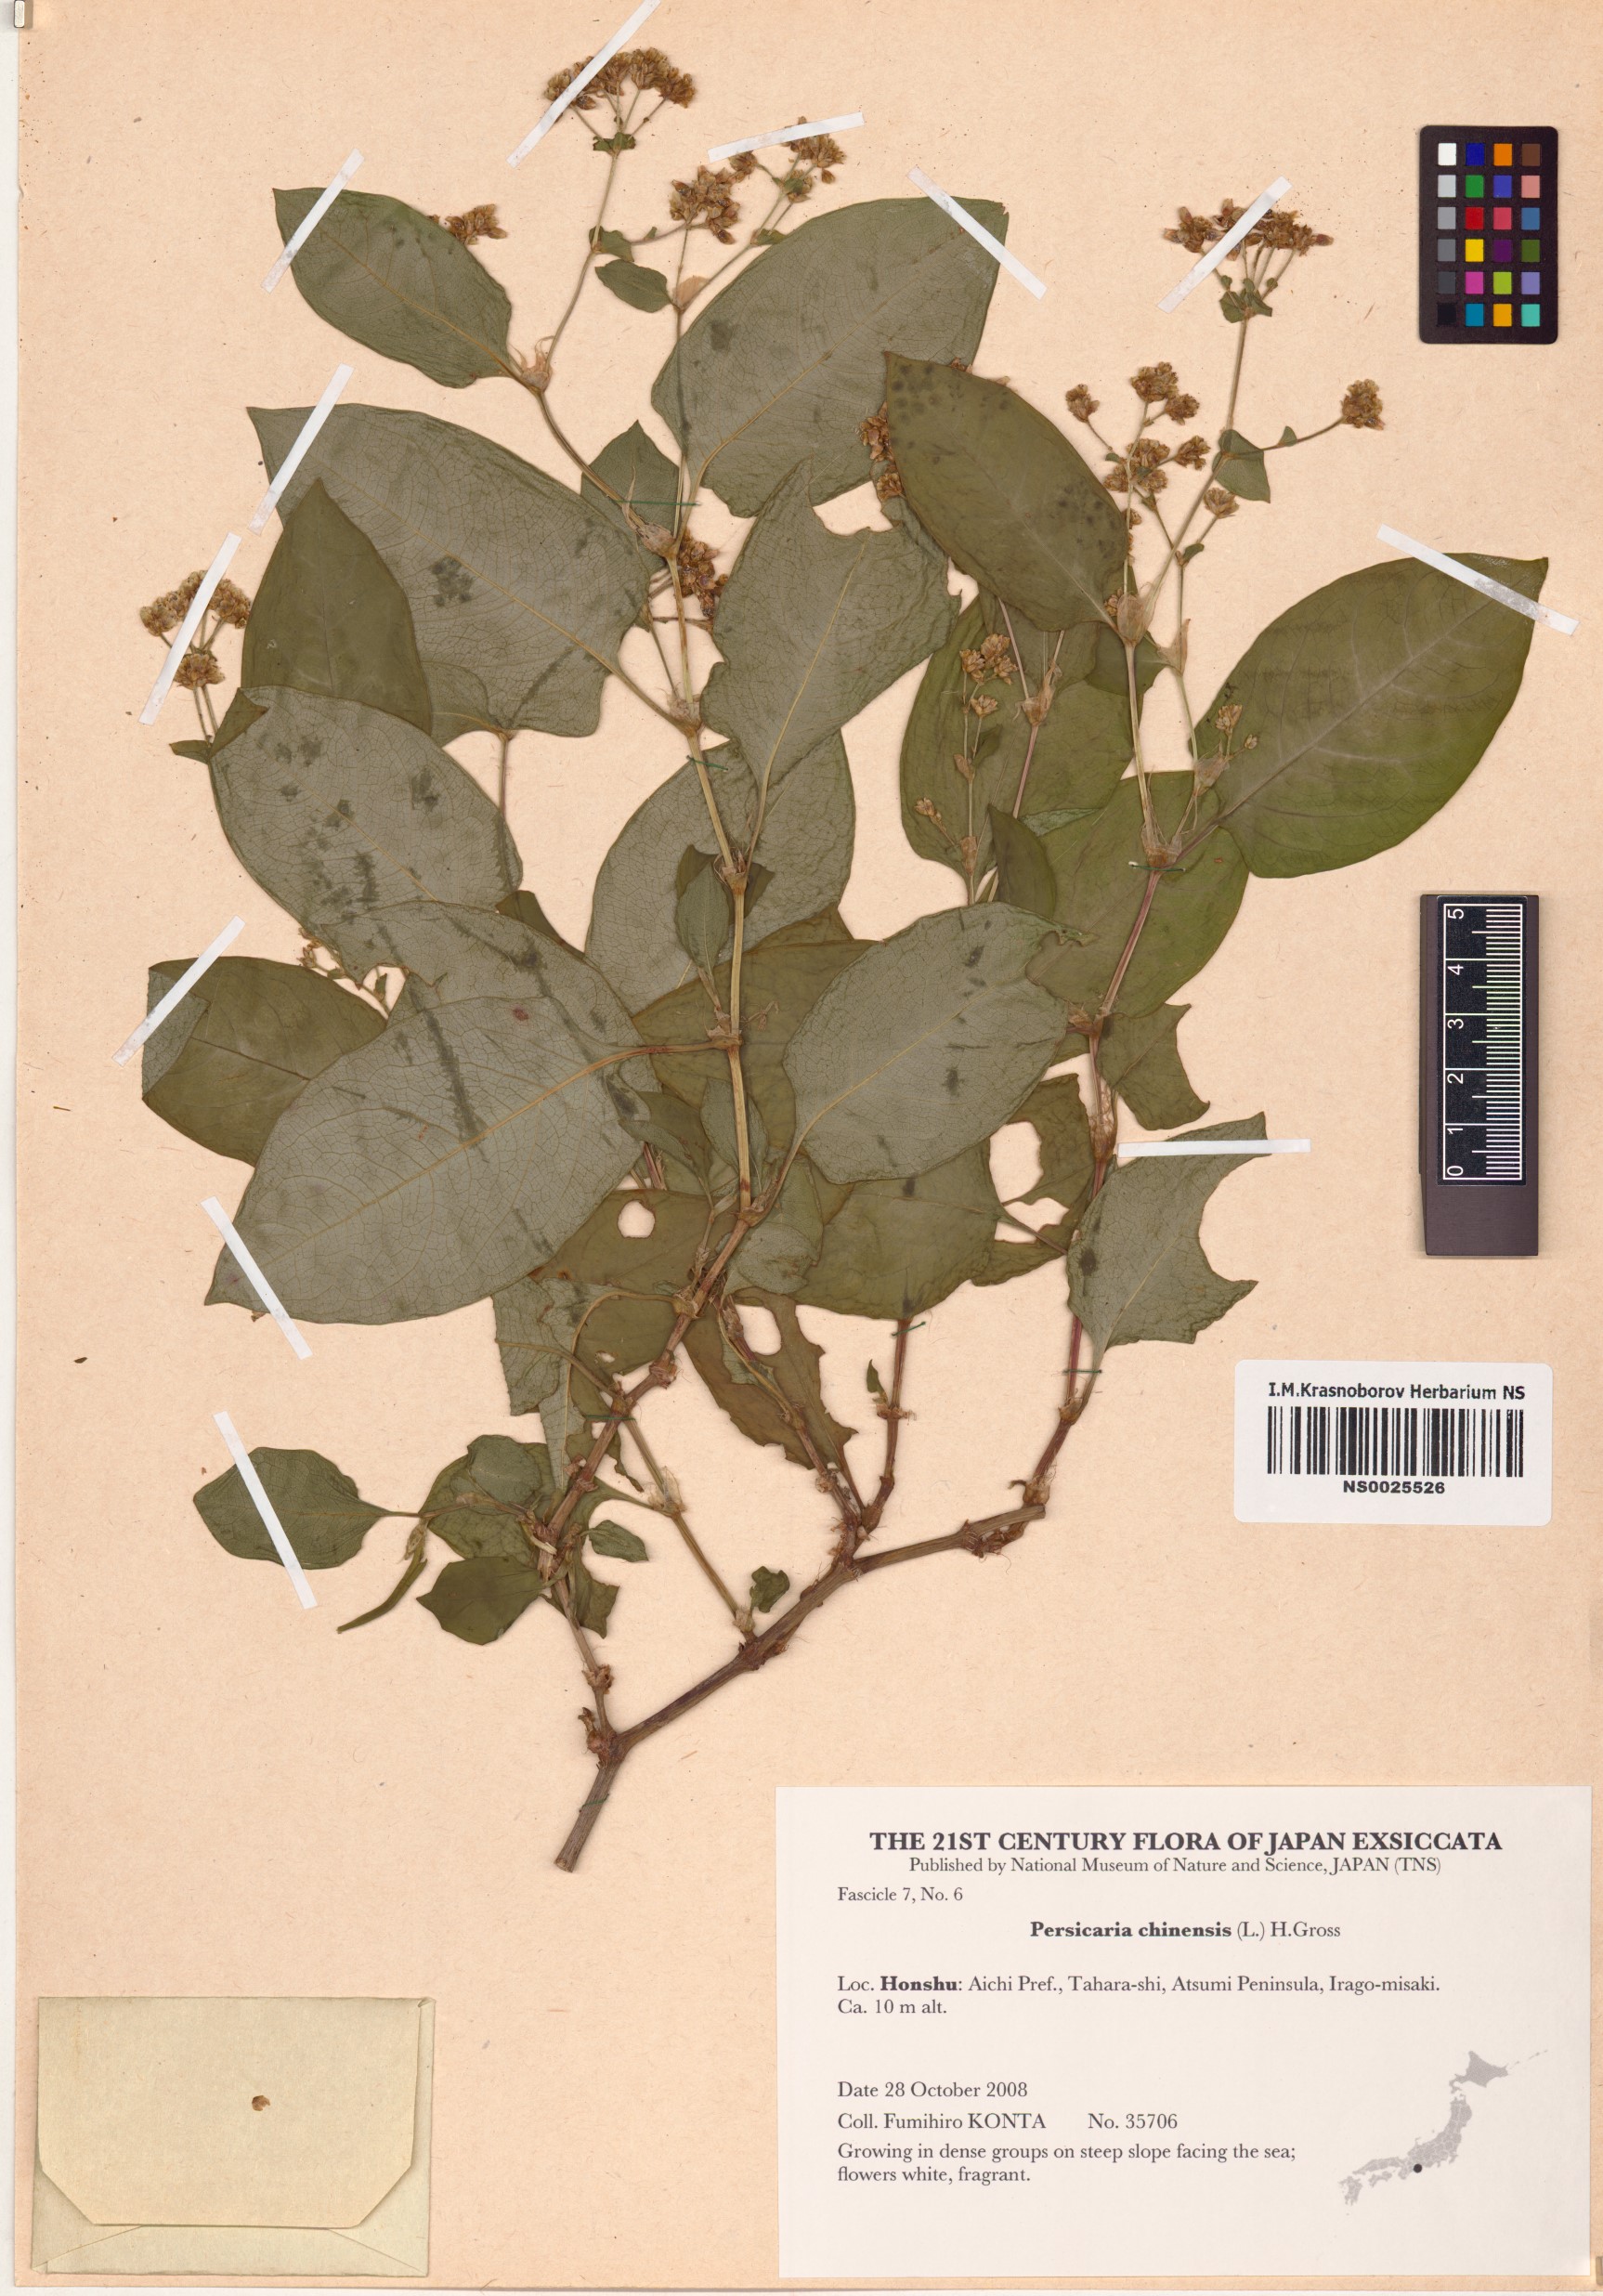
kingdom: Plantae
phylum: Tracheophyta
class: Magnoliopsida
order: Caryophyllales
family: Polygonaceae
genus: Persicaria
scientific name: Persicaria chinensis
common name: Chinese knotweed
